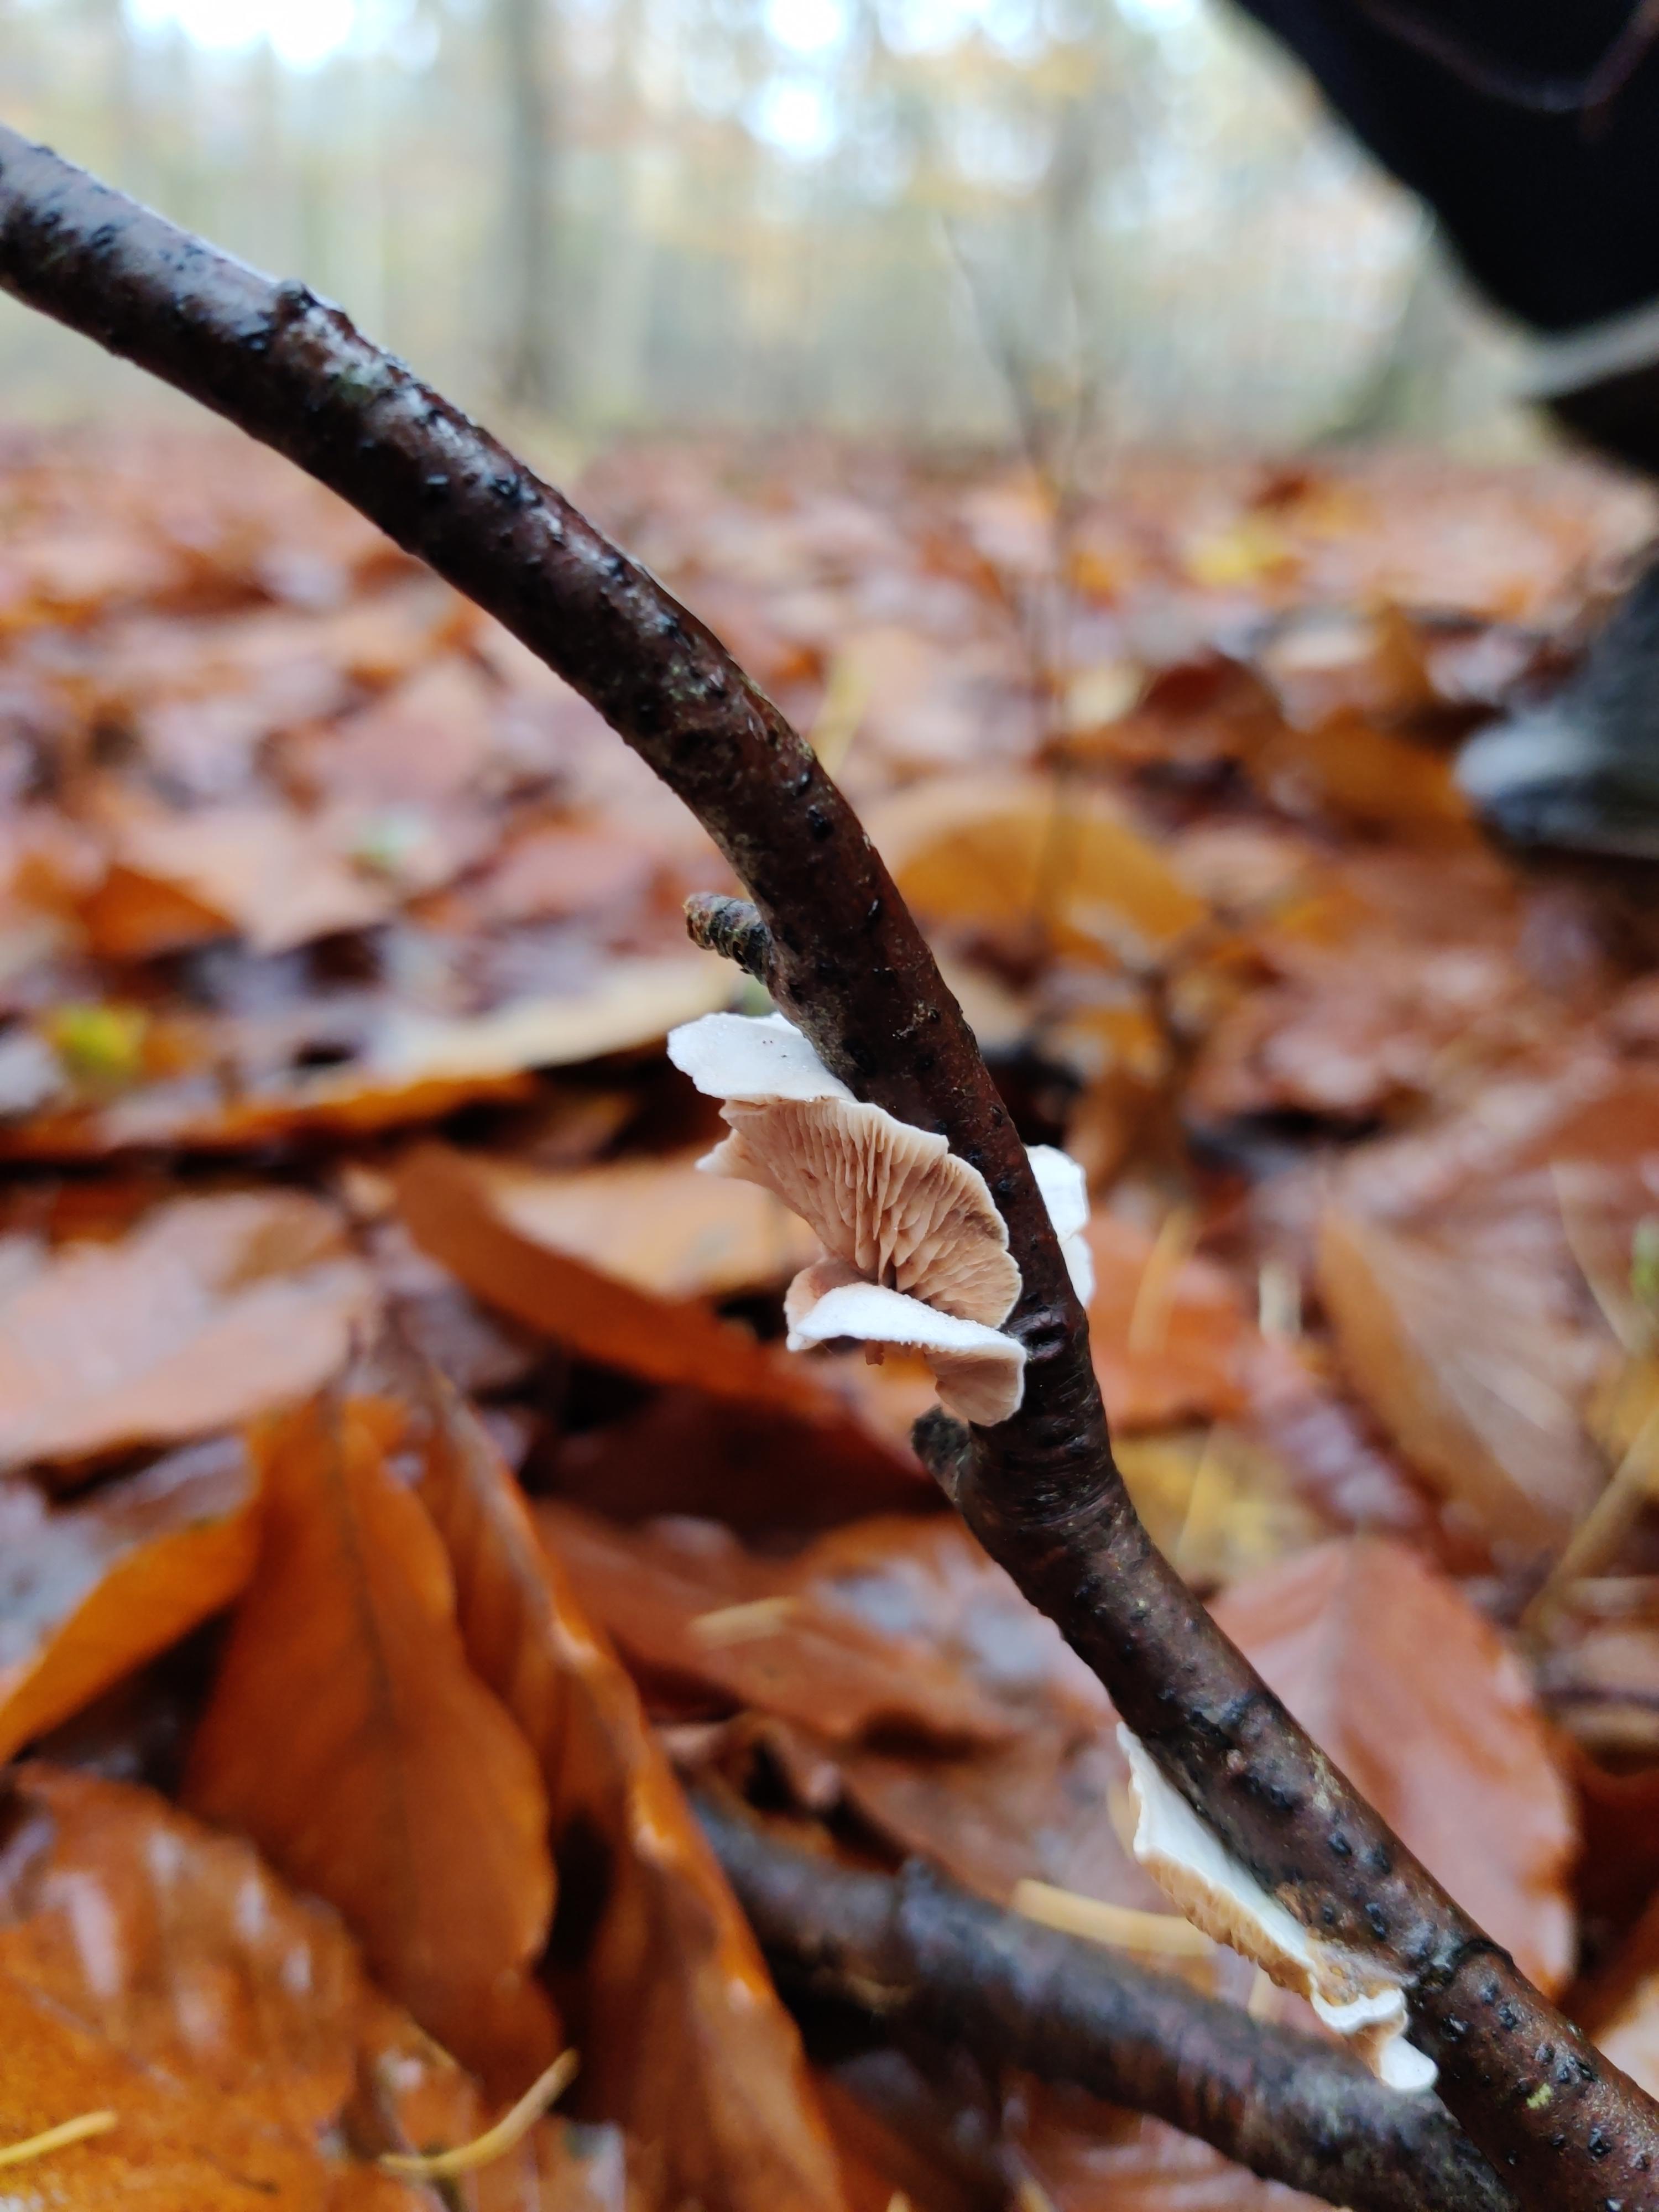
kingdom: Fungi
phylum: Basidiomycota
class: Agaricomycetes
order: Agaricales
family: Crepidotaceae
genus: Crepidotus
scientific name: Crepidotus
